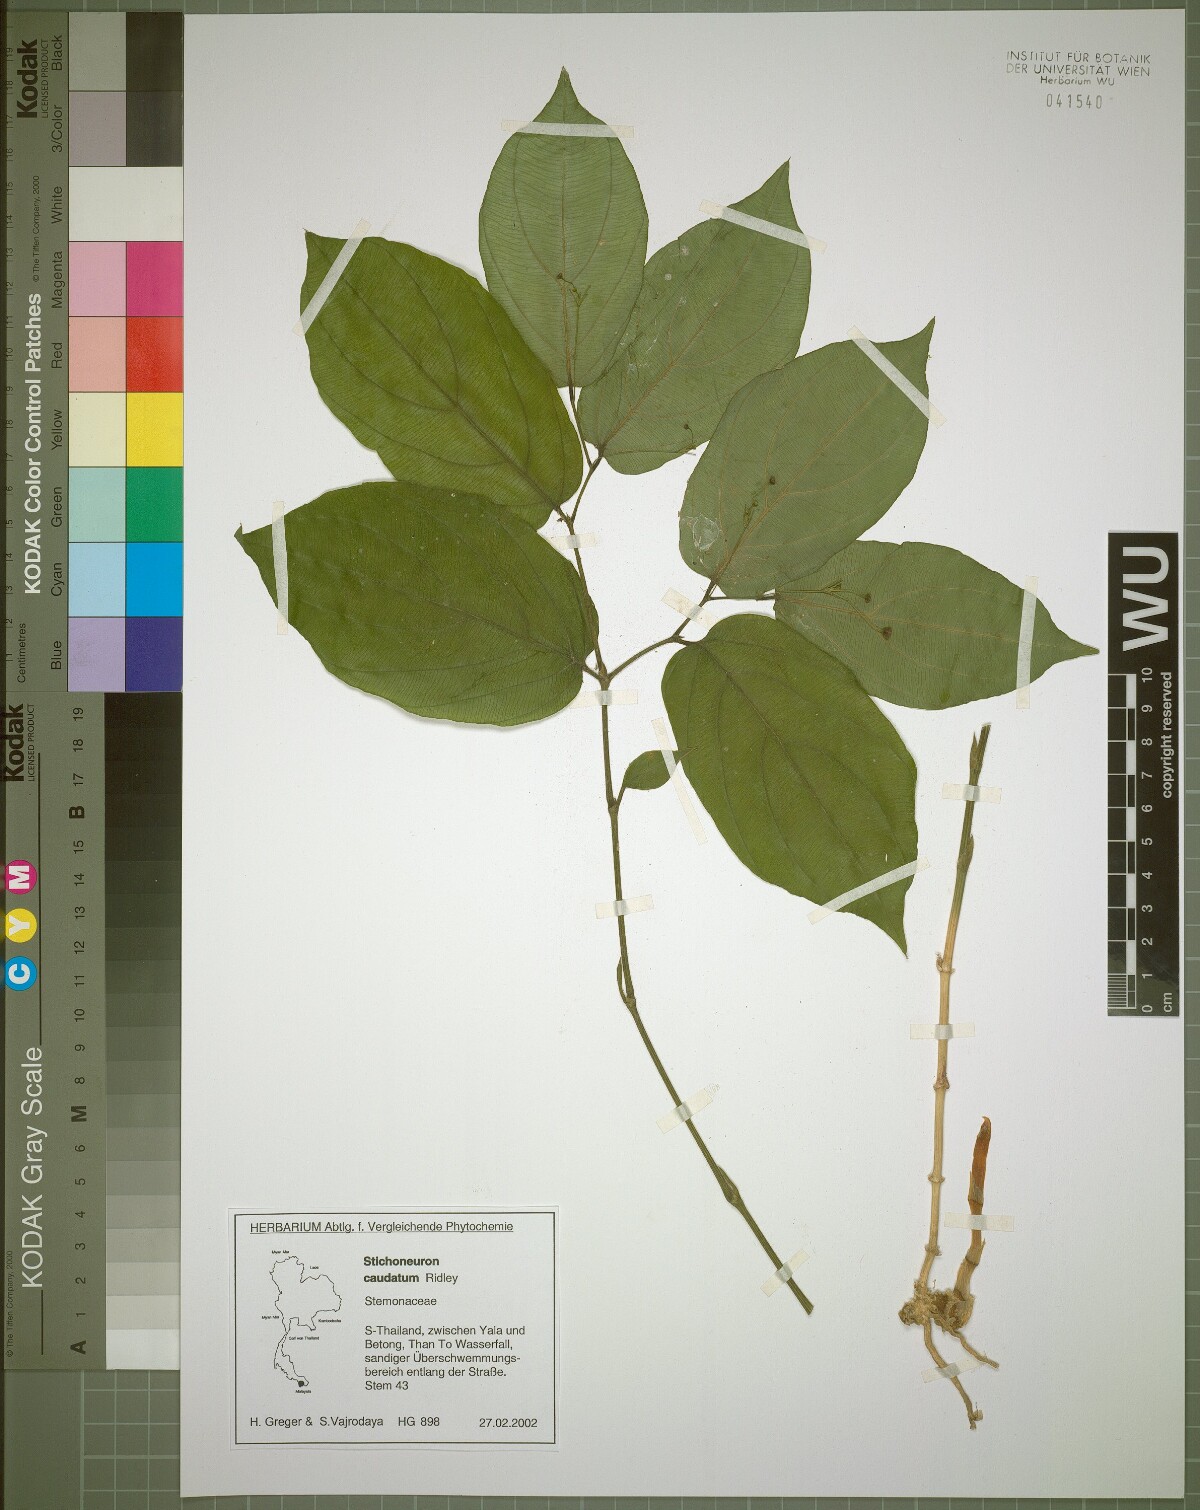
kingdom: Plantae
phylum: Tracheophyta
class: Liliopsida
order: Pandanales
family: Stemonaceae
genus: Stichoneuron
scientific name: Stichoneuron caudatum
